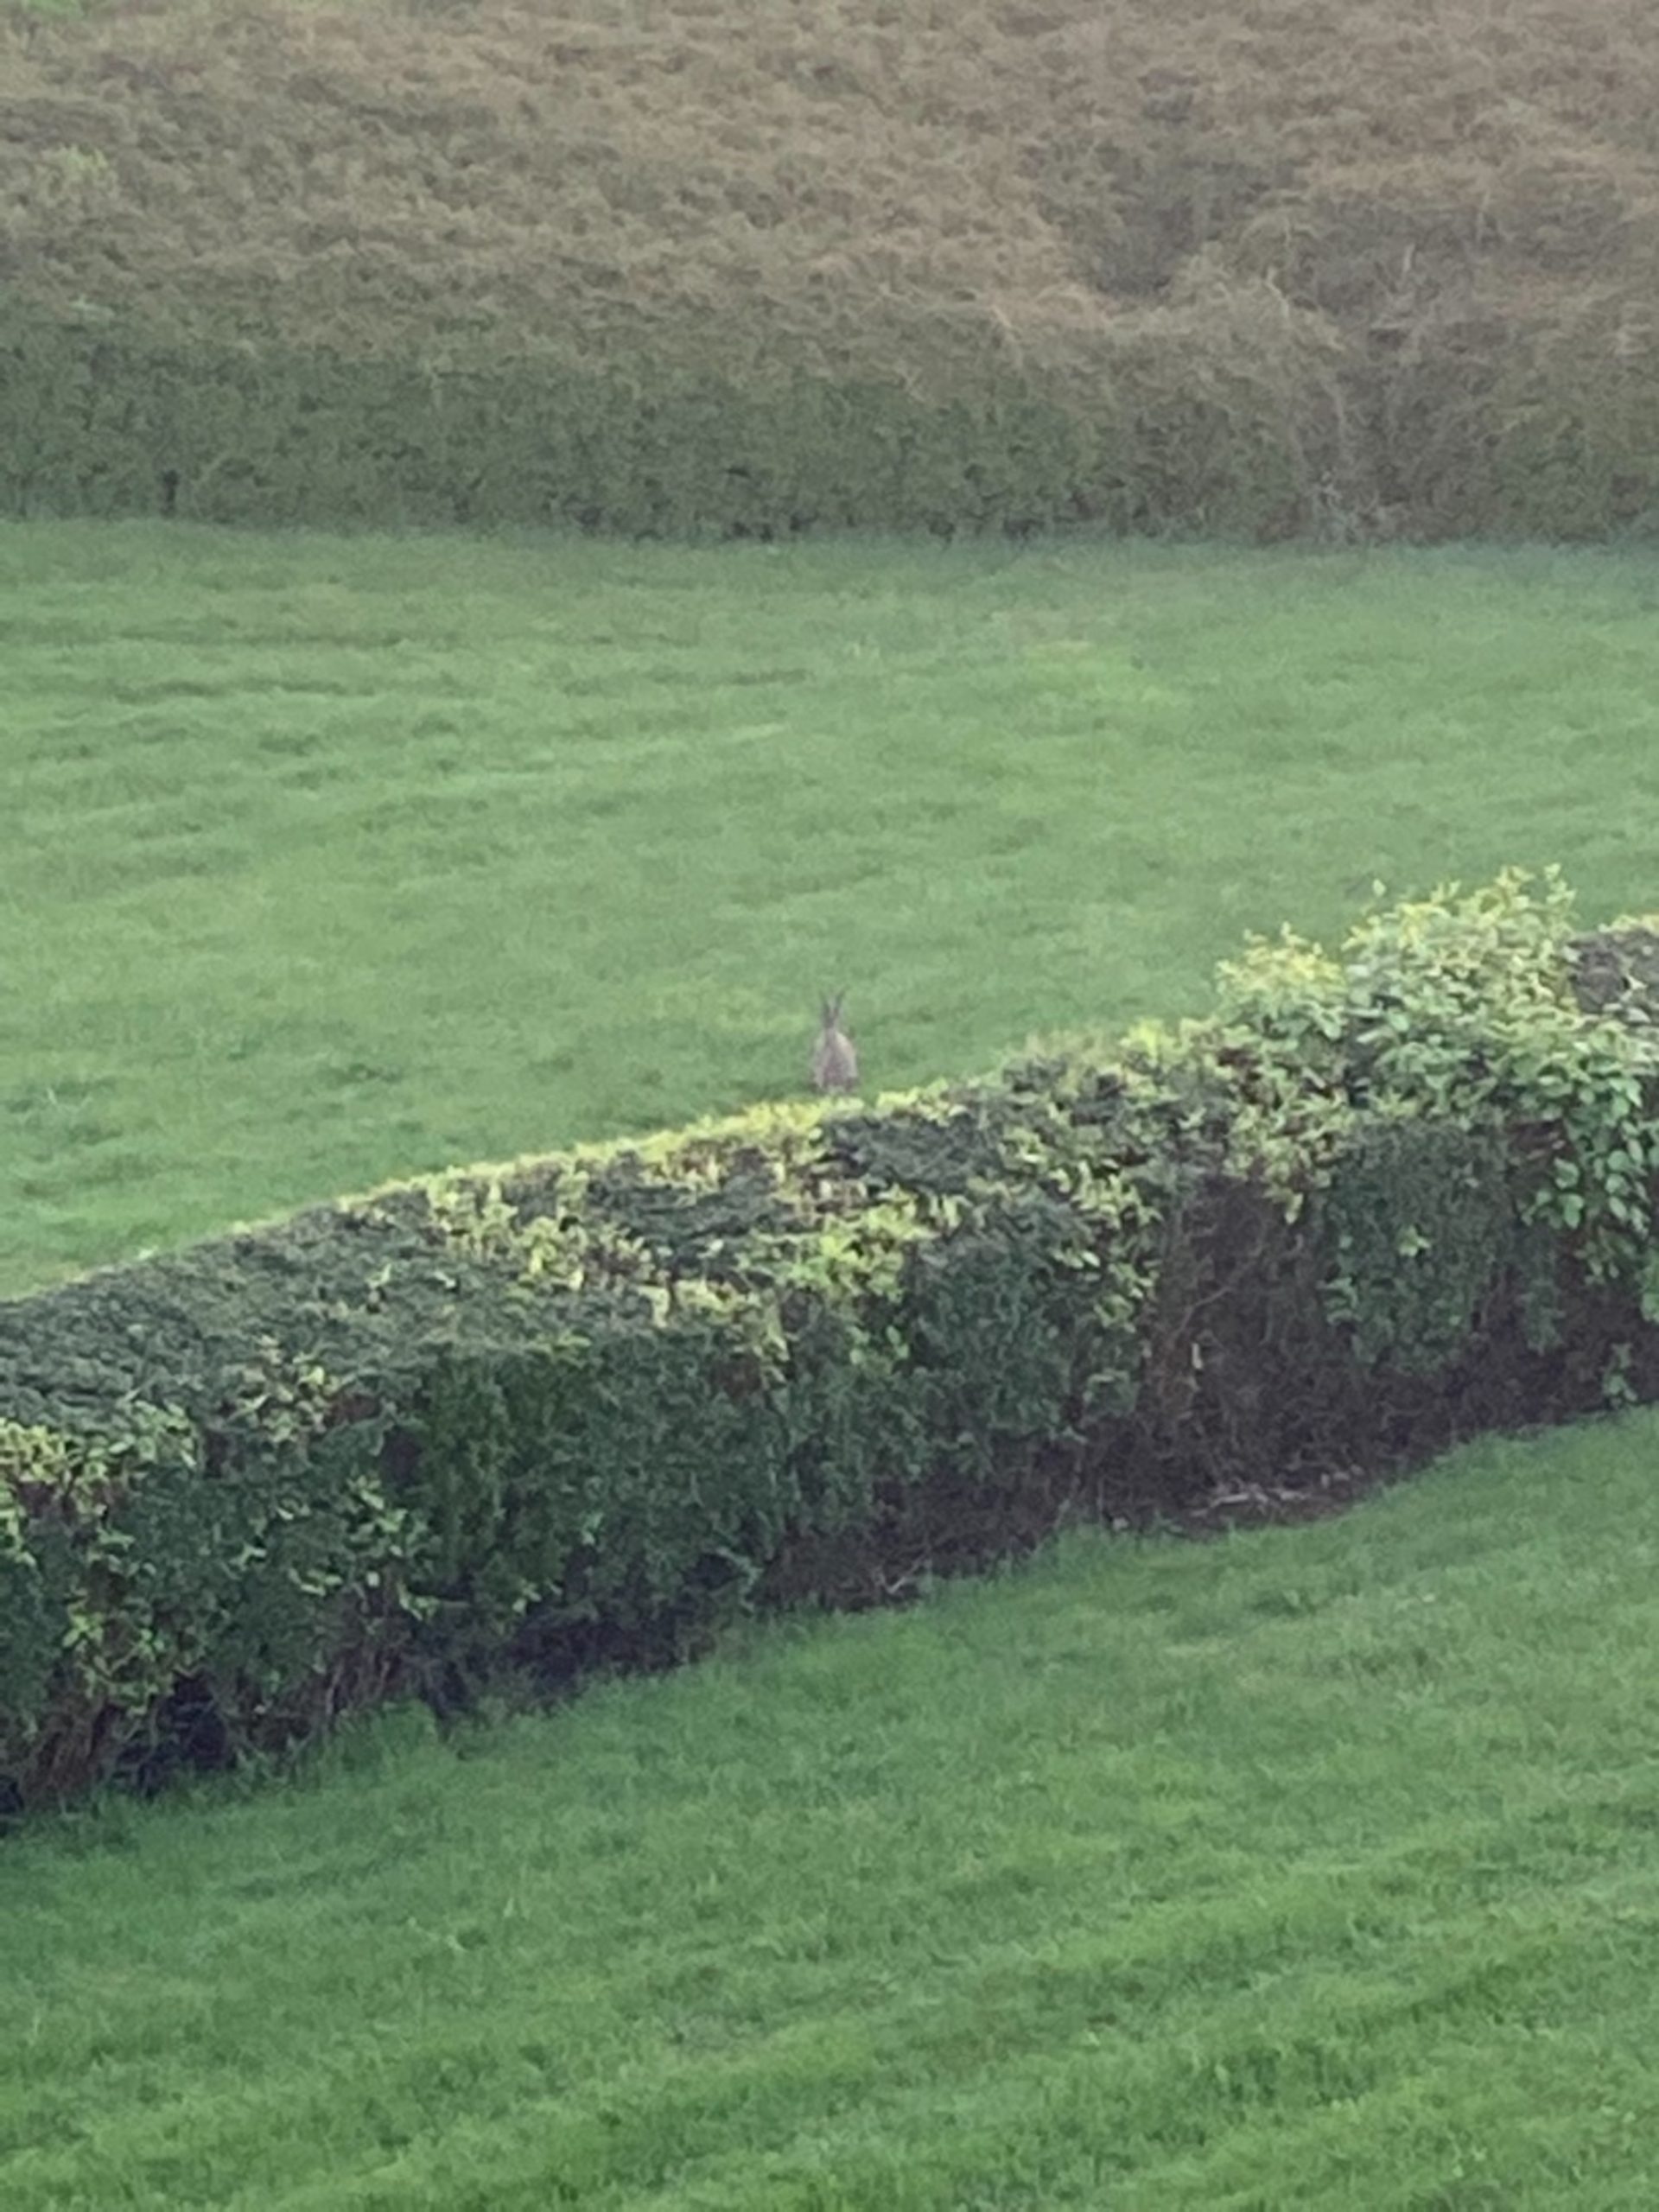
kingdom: Animalia
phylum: Chordata
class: Mammalia
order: Lagomorpha
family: Leporidae
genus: Lepus
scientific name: Lepus europaeus
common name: Hare
